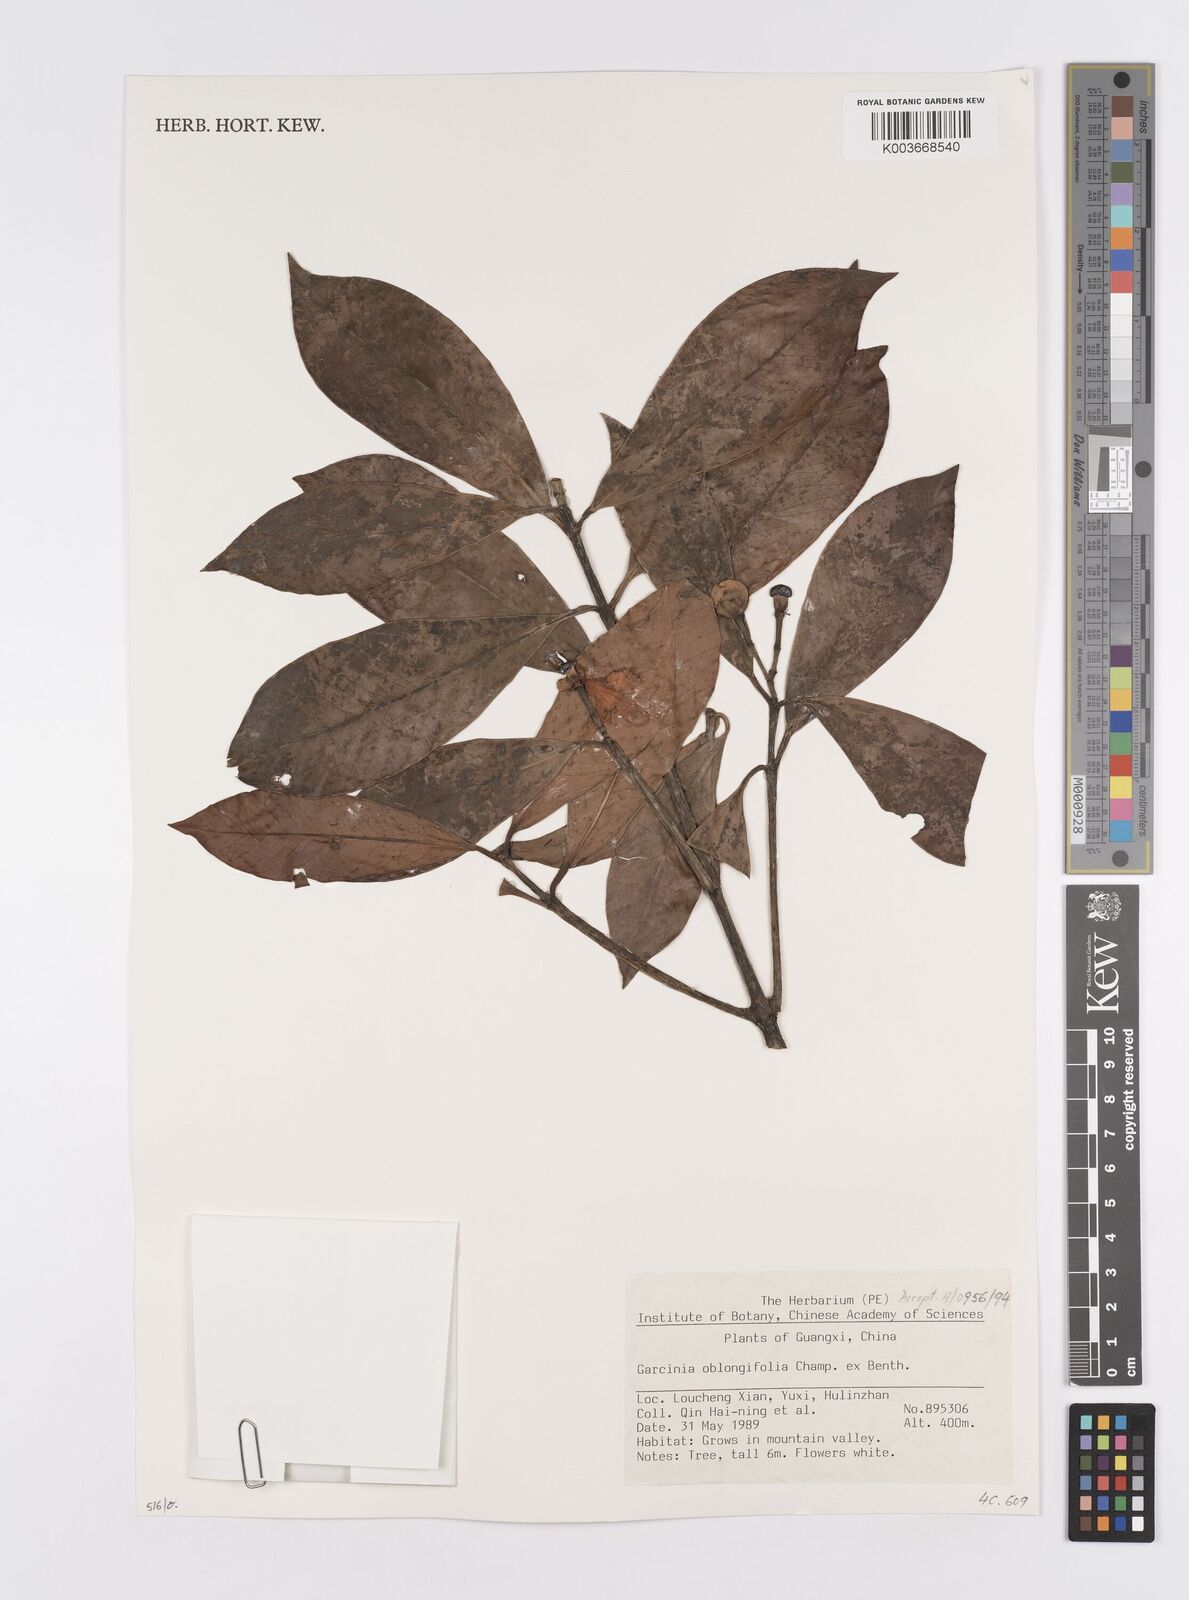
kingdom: Plantae
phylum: Tracheophyta
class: Magnoliopsida
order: Malpighiales
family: Clusiaceae
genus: Garcinia
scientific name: Garcinia oblongifolia
